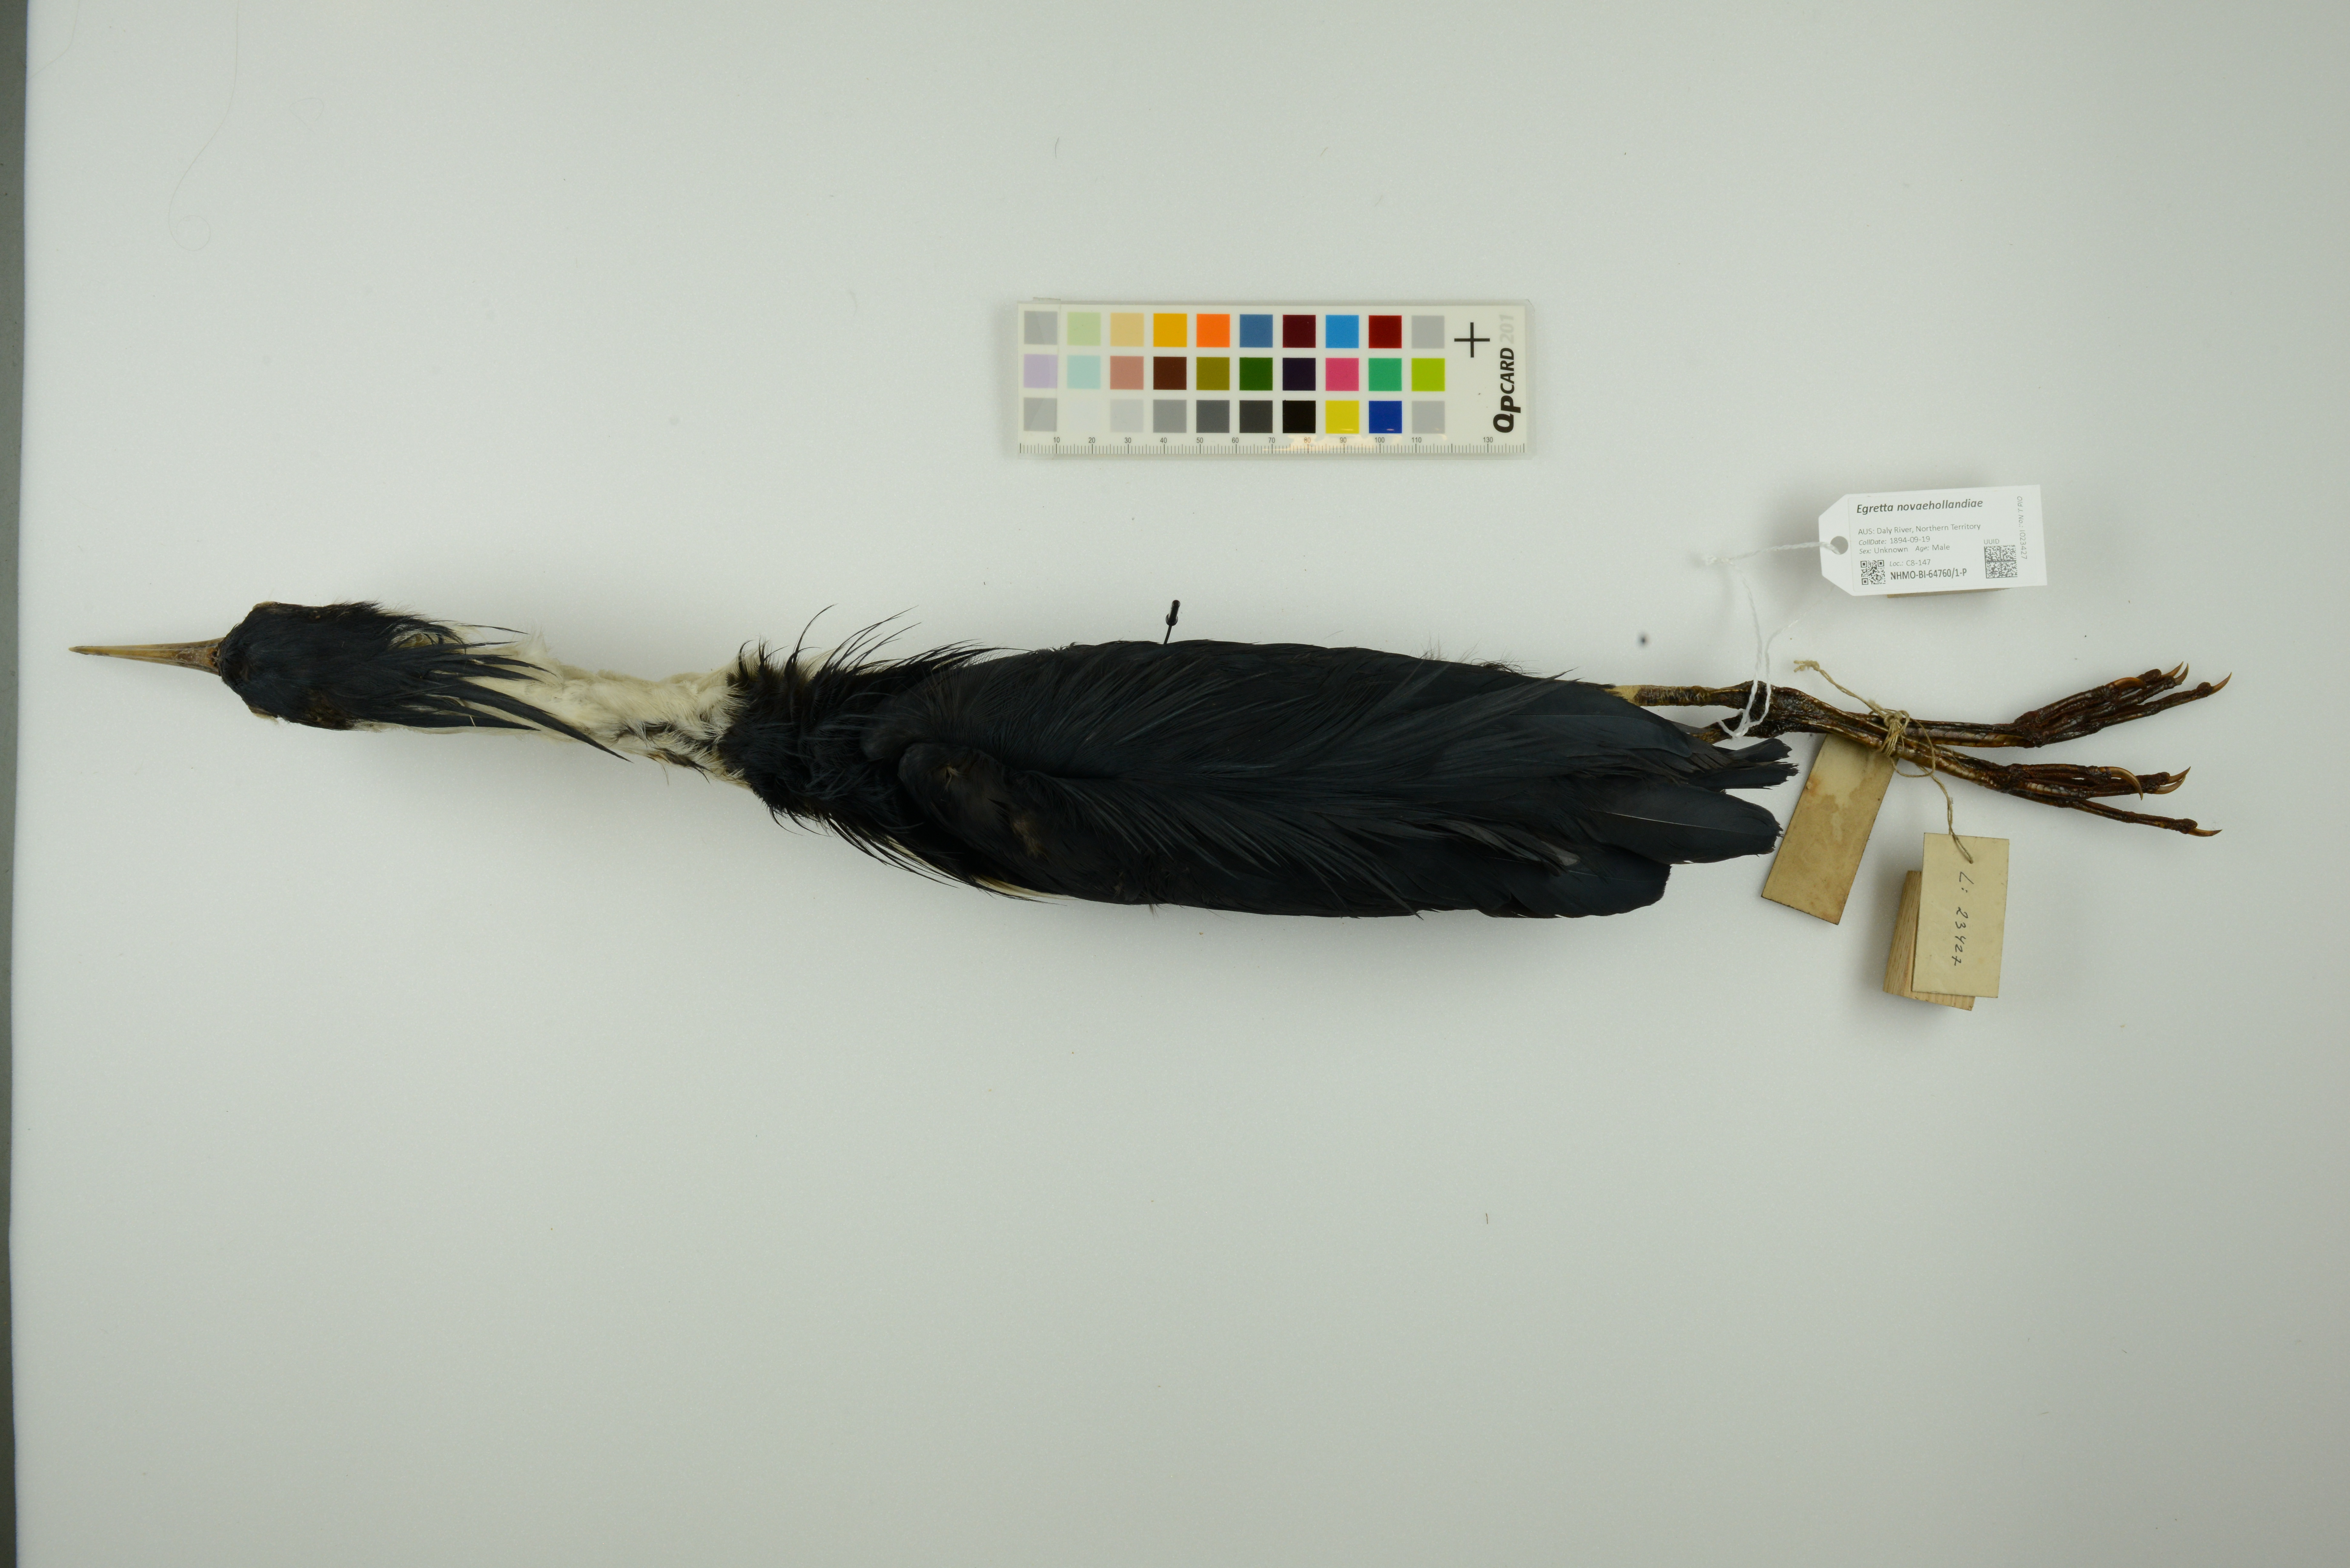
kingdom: Animalia
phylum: Chordata
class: Aves
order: Pelecaniformes
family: Ardeidae
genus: Egretta
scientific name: Egretta novaehollandiae
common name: White-faced heron
